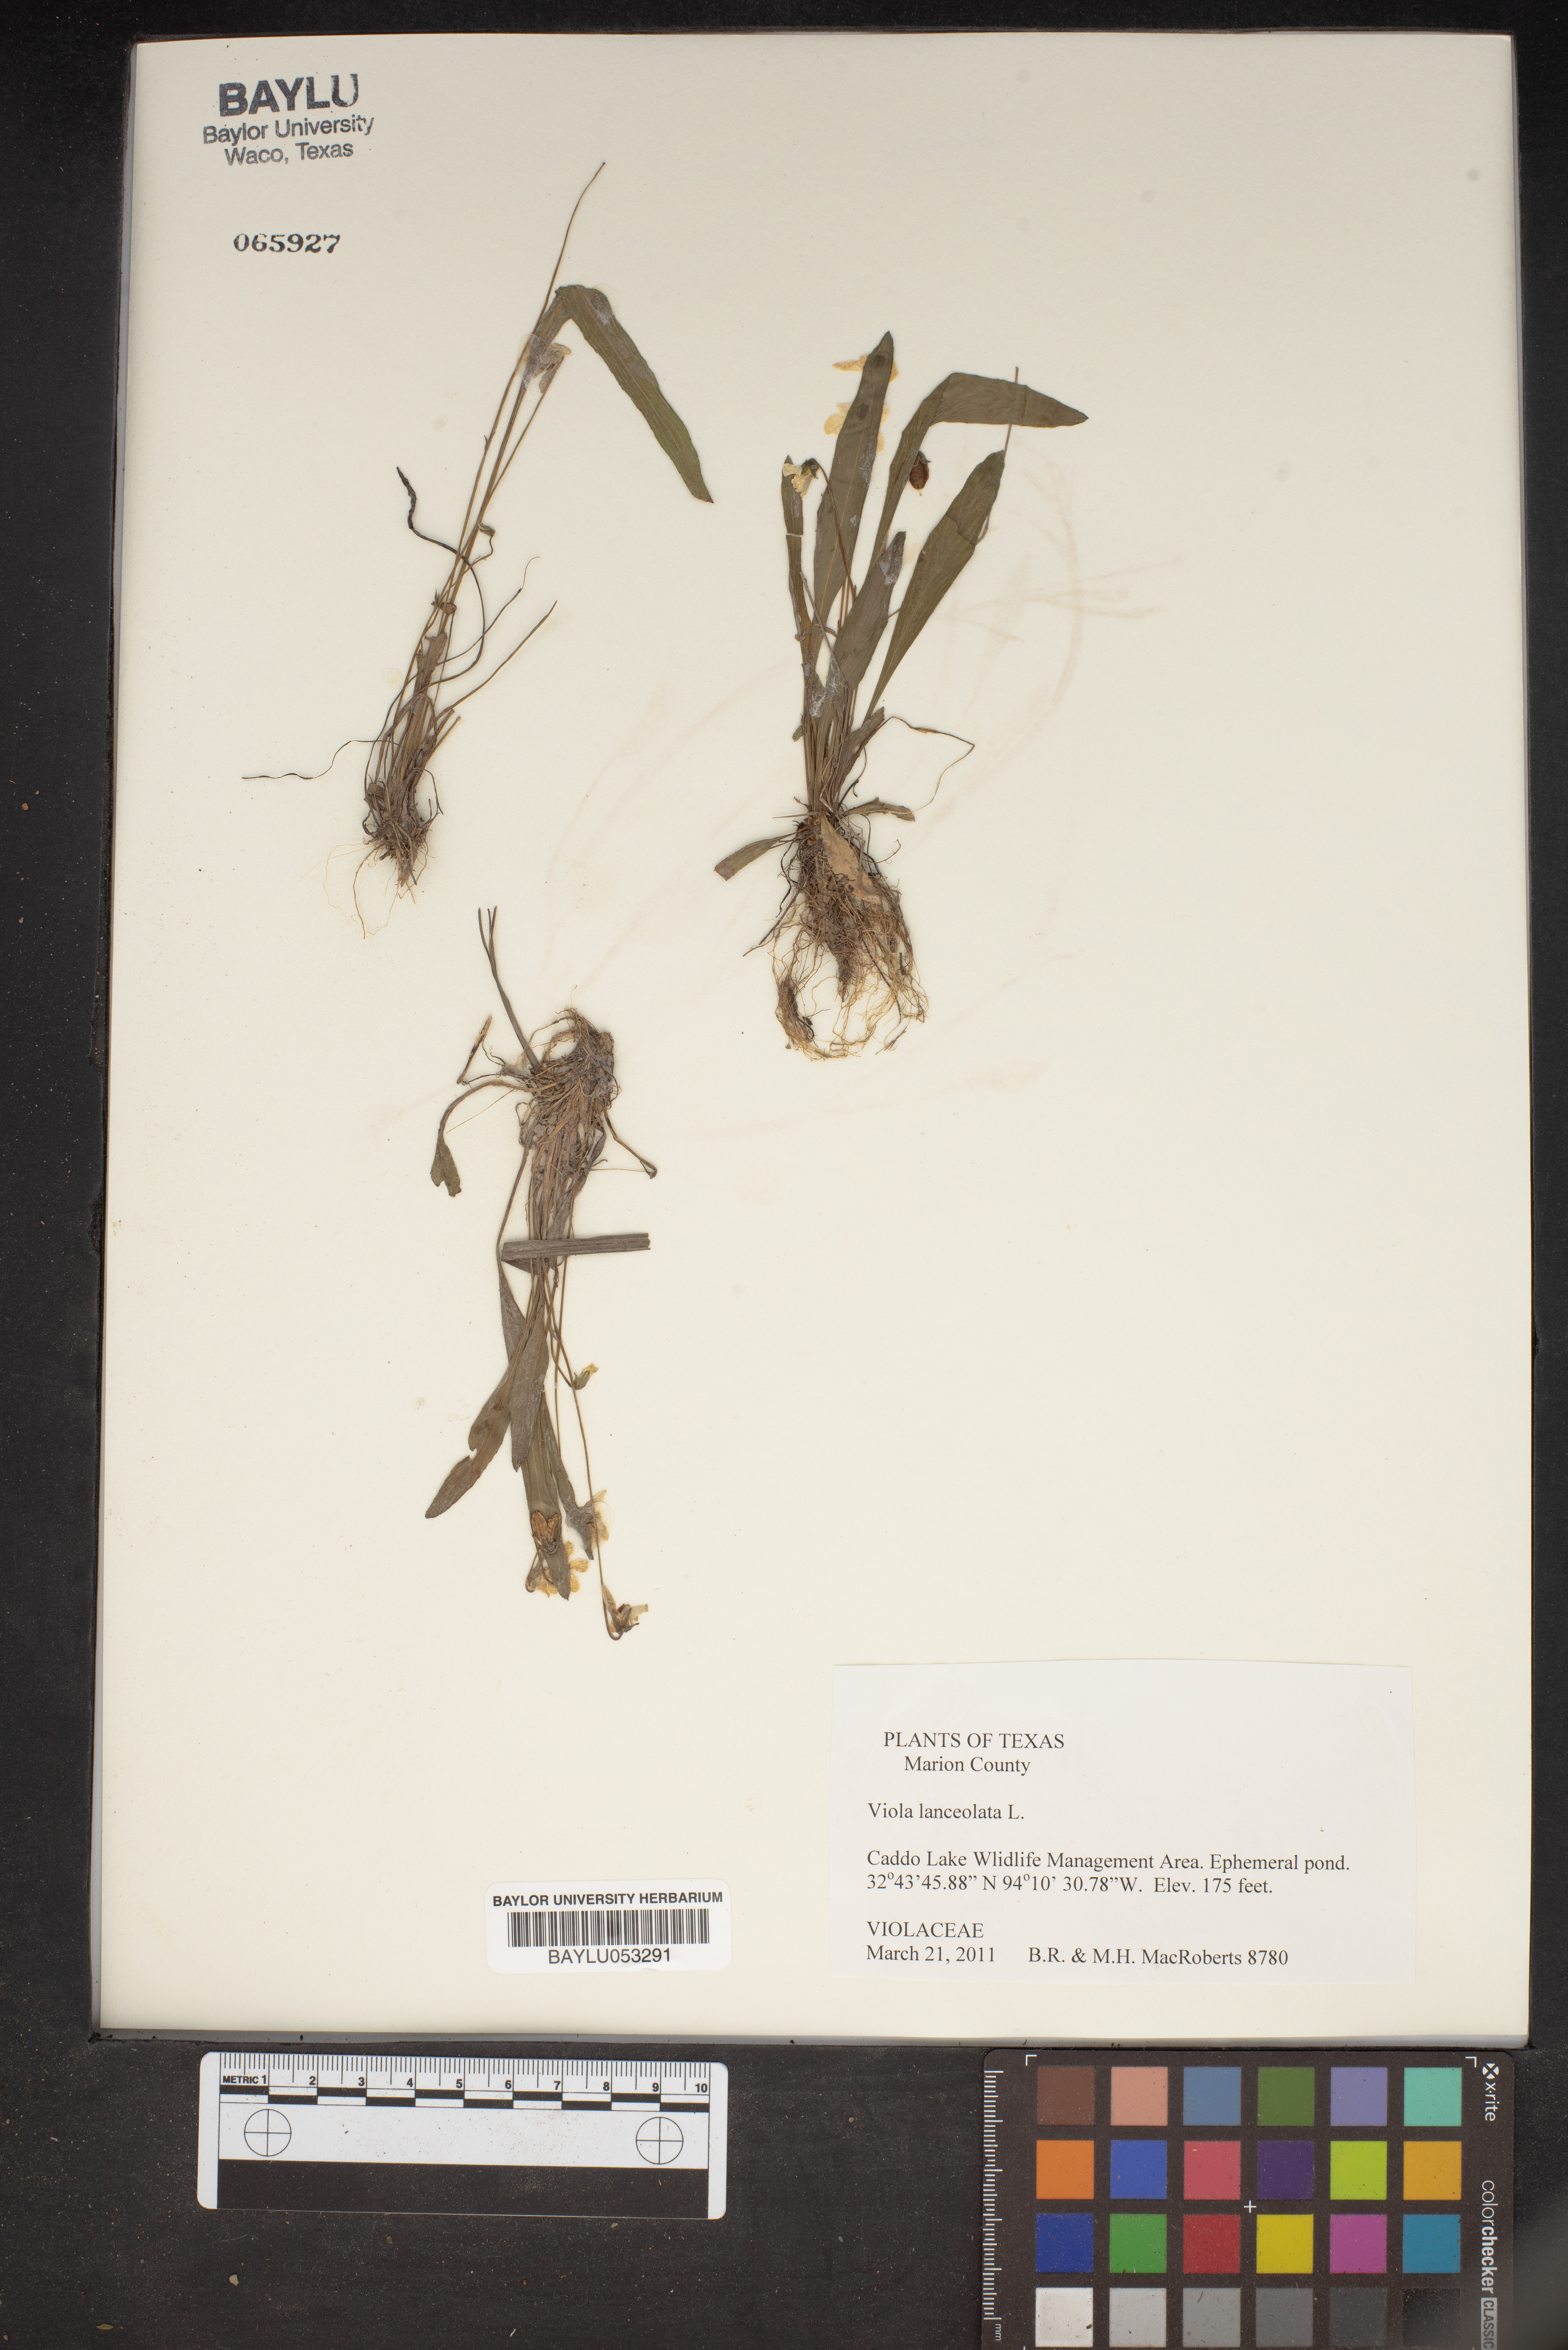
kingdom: Plantae
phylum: Tracheophyta
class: Magnoliopsida
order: Malpighiales
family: Violaceae
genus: Viola
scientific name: Viola lanceolata
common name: Bog white violet
